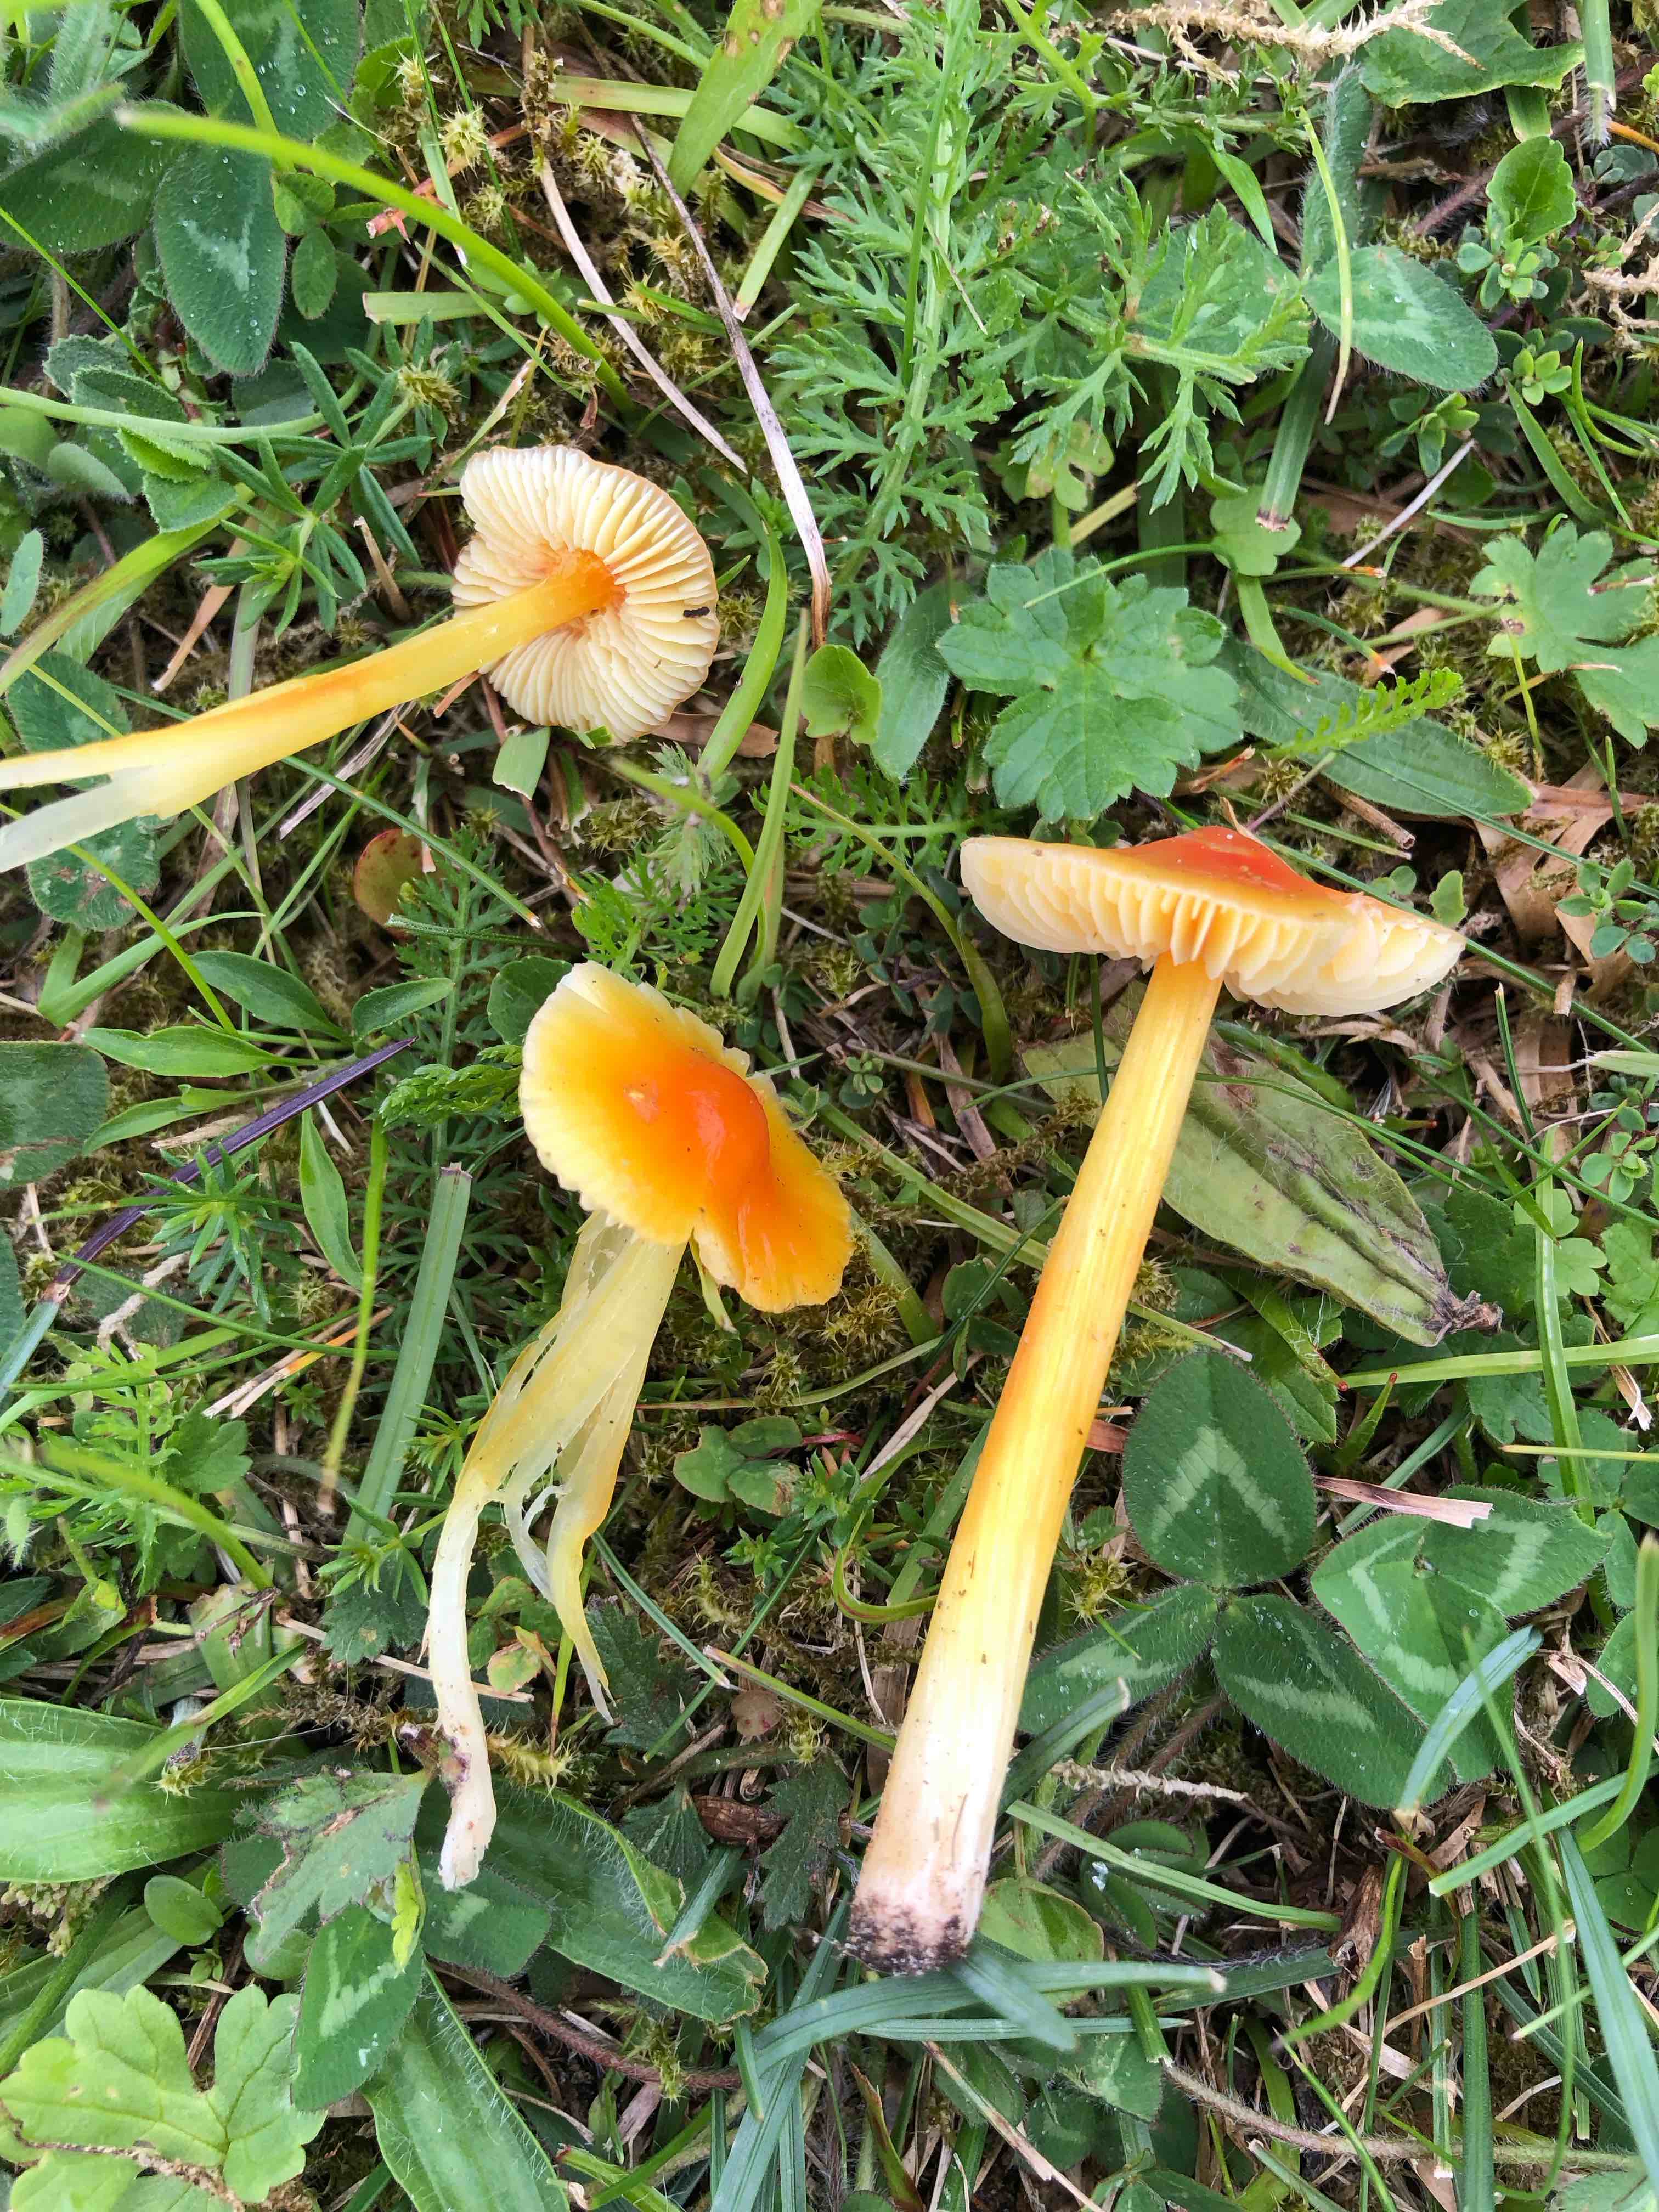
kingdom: Fungi
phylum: Basidiomycota
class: Agaricomycetes
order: Agaricales
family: Hygrophoraceae
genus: Hygrocybe
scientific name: Hygrocybe
